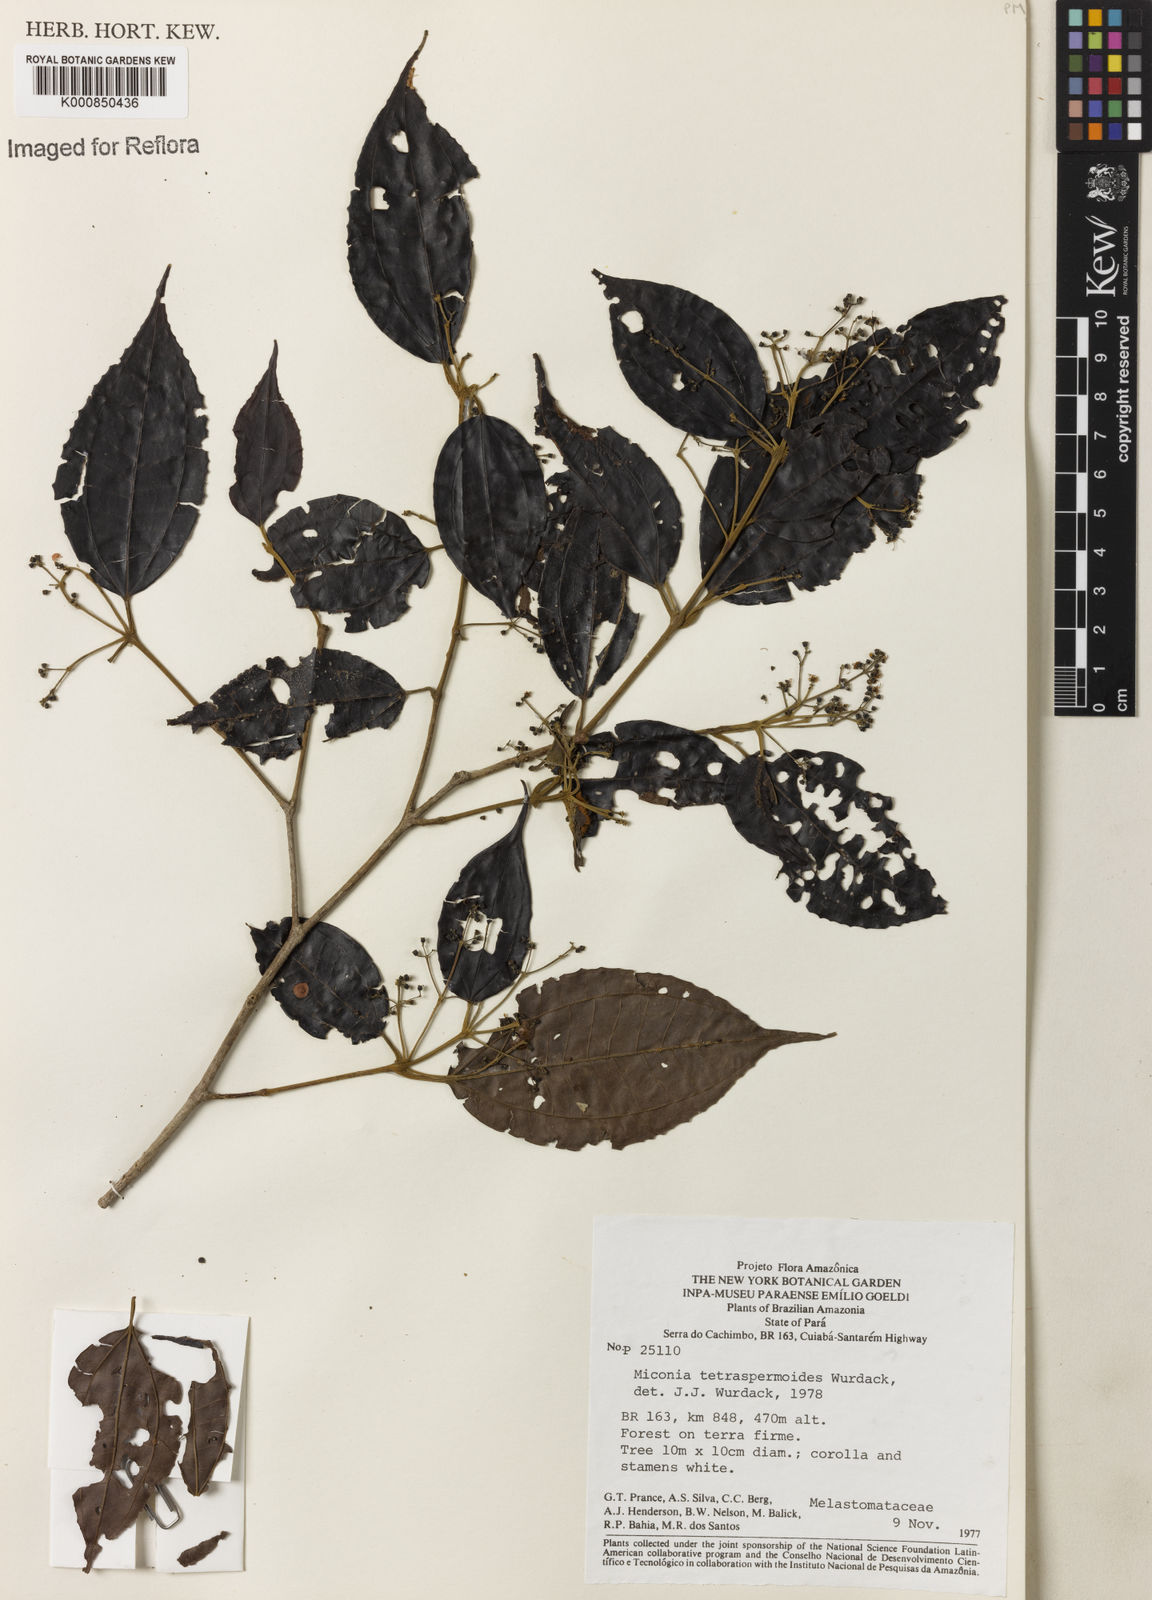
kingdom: Plantae
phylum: Tracheophyta
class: Magnoliopsida
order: Myrtales
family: Melastomataceae
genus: Miconia
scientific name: Miconia tetraspermoides
